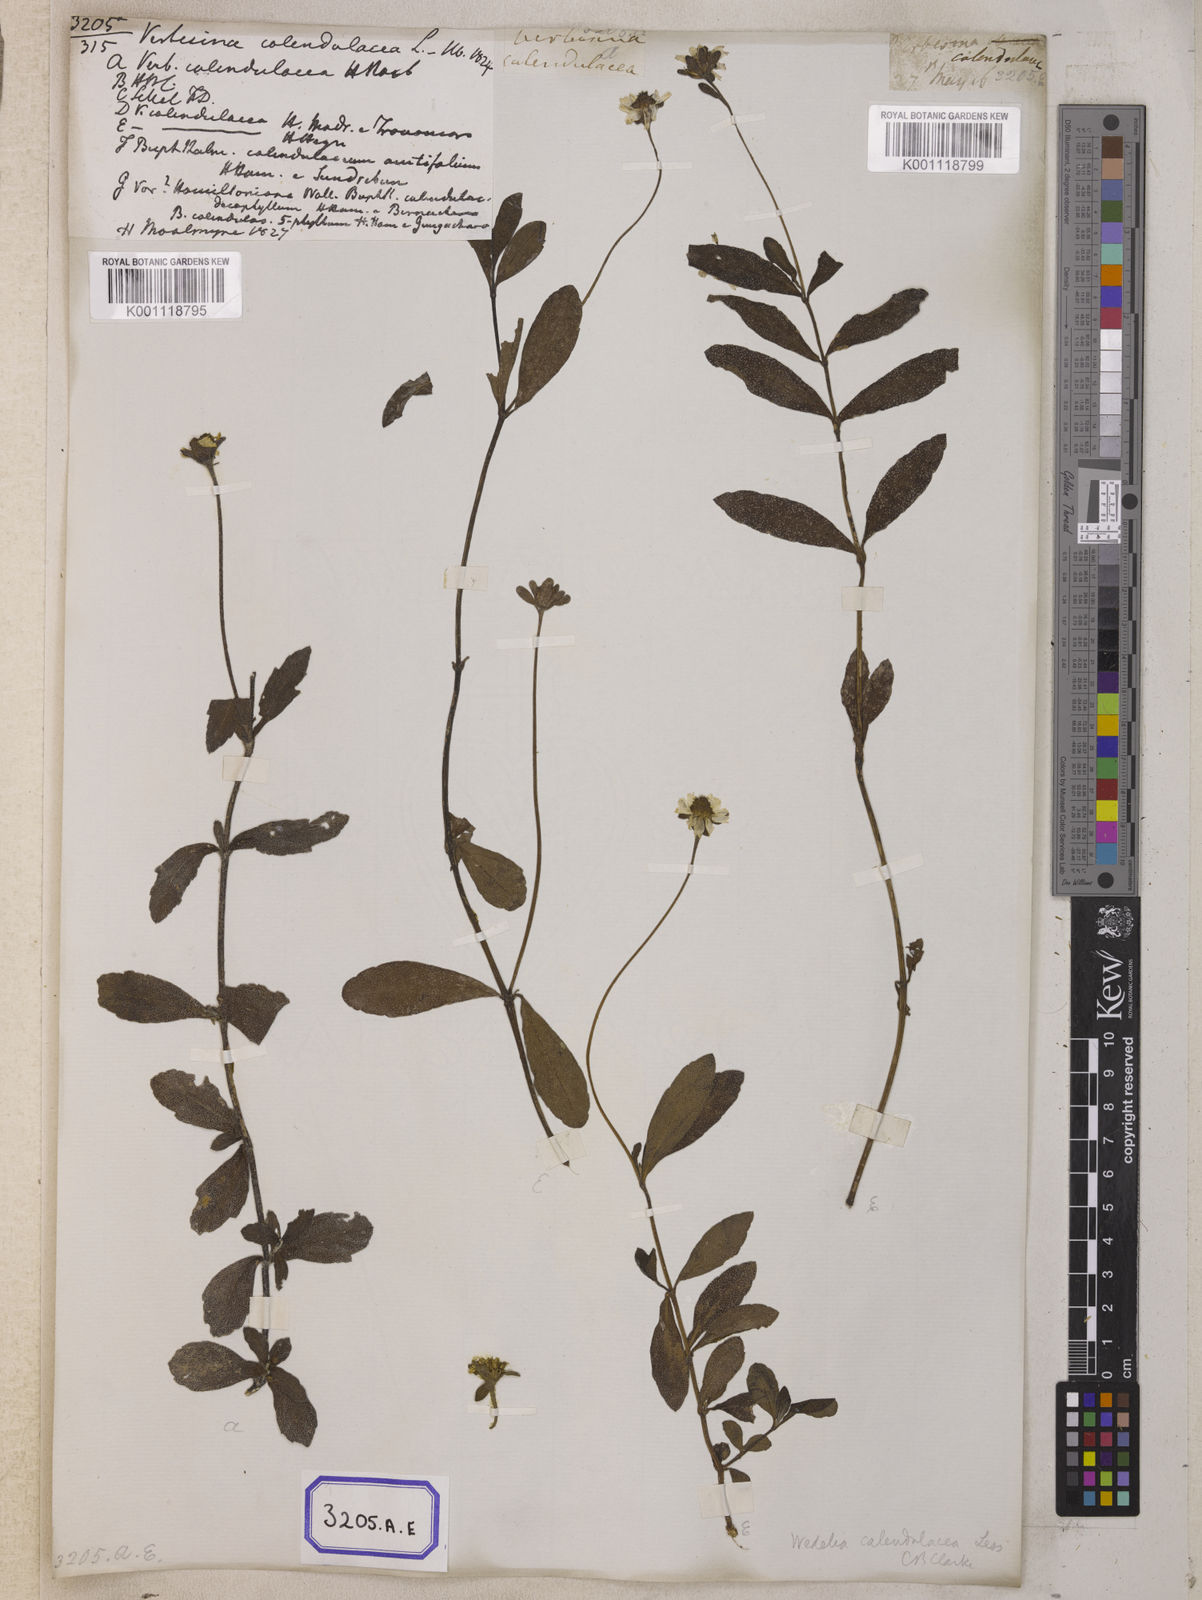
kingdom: Plantae
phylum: Tracheophyta
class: Magnoliopsida
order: Asterales
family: Asteraceae
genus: Sphagneticola
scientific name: Sphagneticola calendulacea
